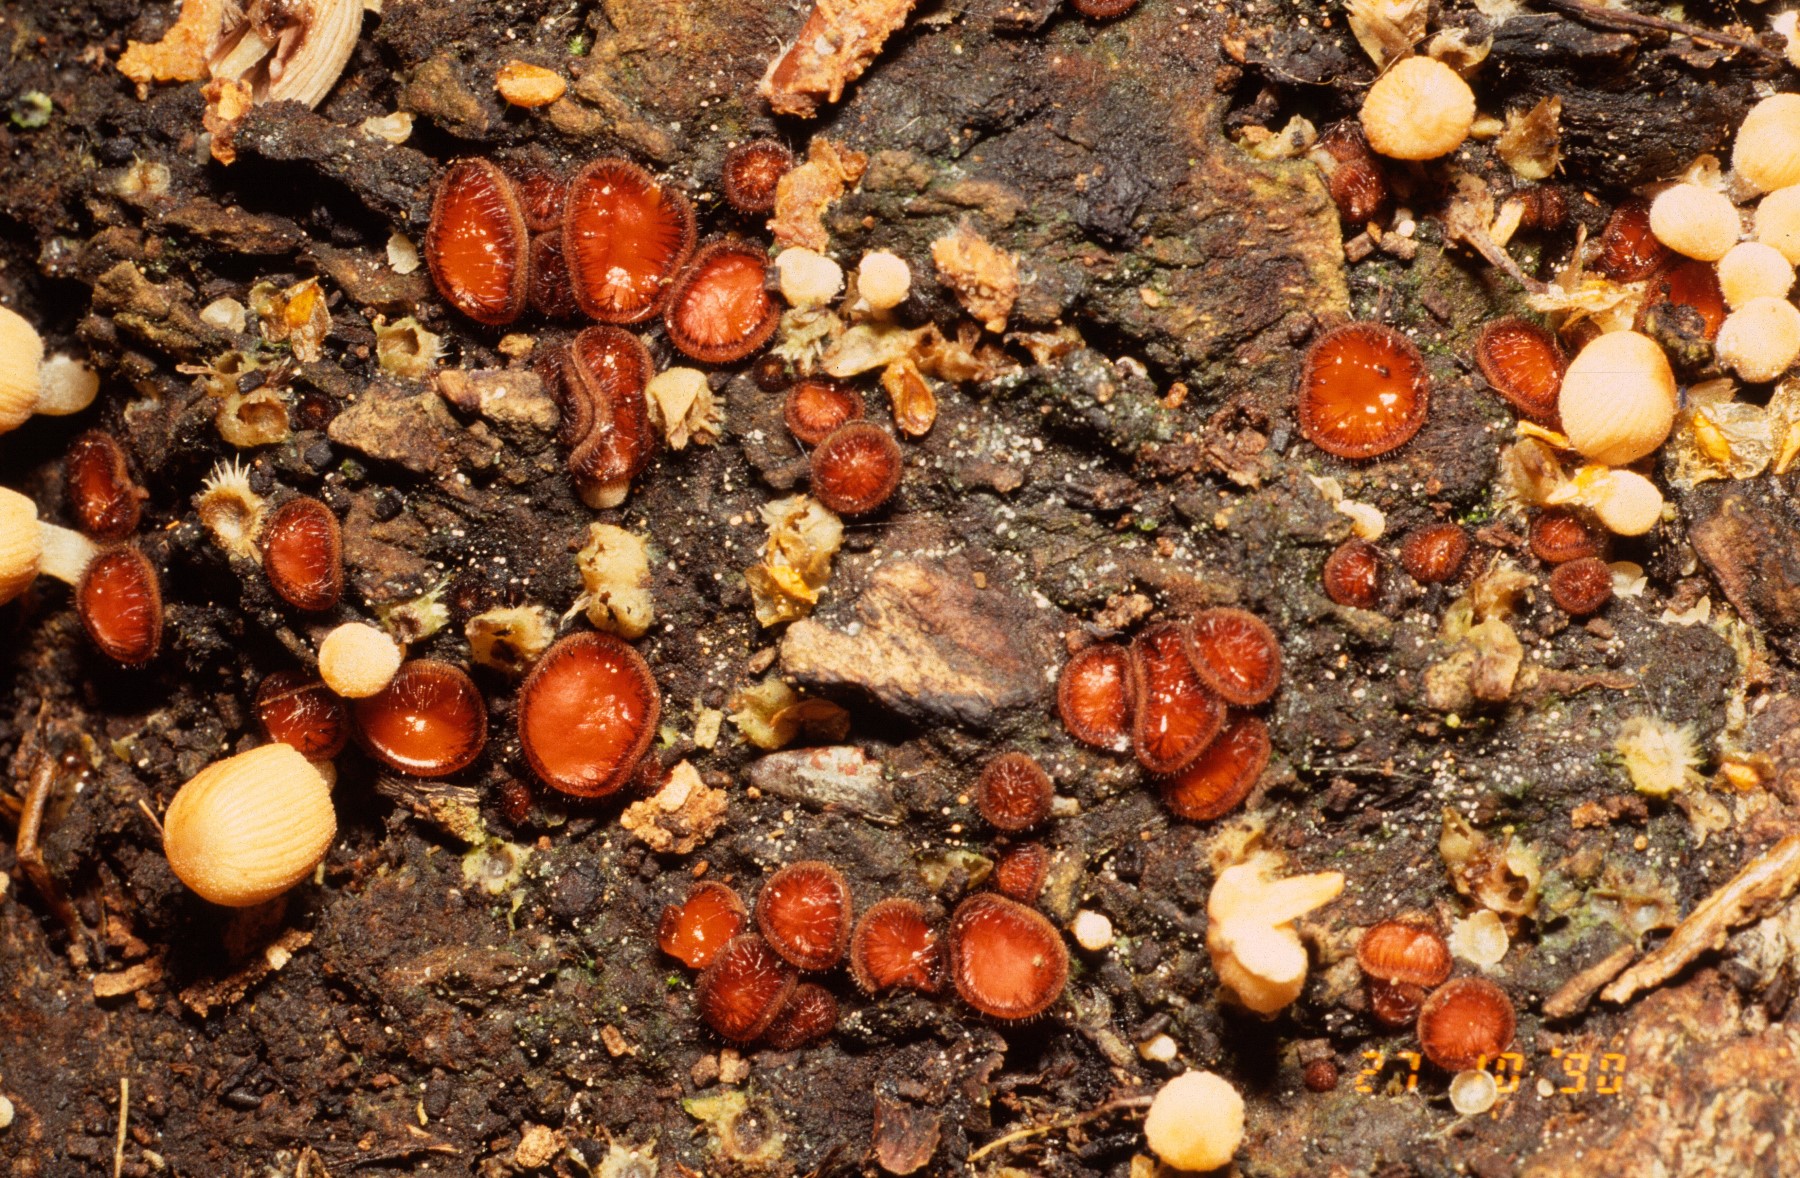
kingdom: Fungi
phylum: Ascomycota
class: Pezizomycetes
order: Pezizales
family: Pyronemataceae
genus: Scutellinia
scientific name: Scutellinia scutellata
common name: frynset skjoldbæger
